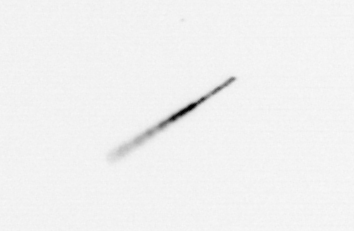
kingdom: Chromista
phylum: Ochrophyta
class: Bacillariophyceae
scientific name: Bacillariophyceae
